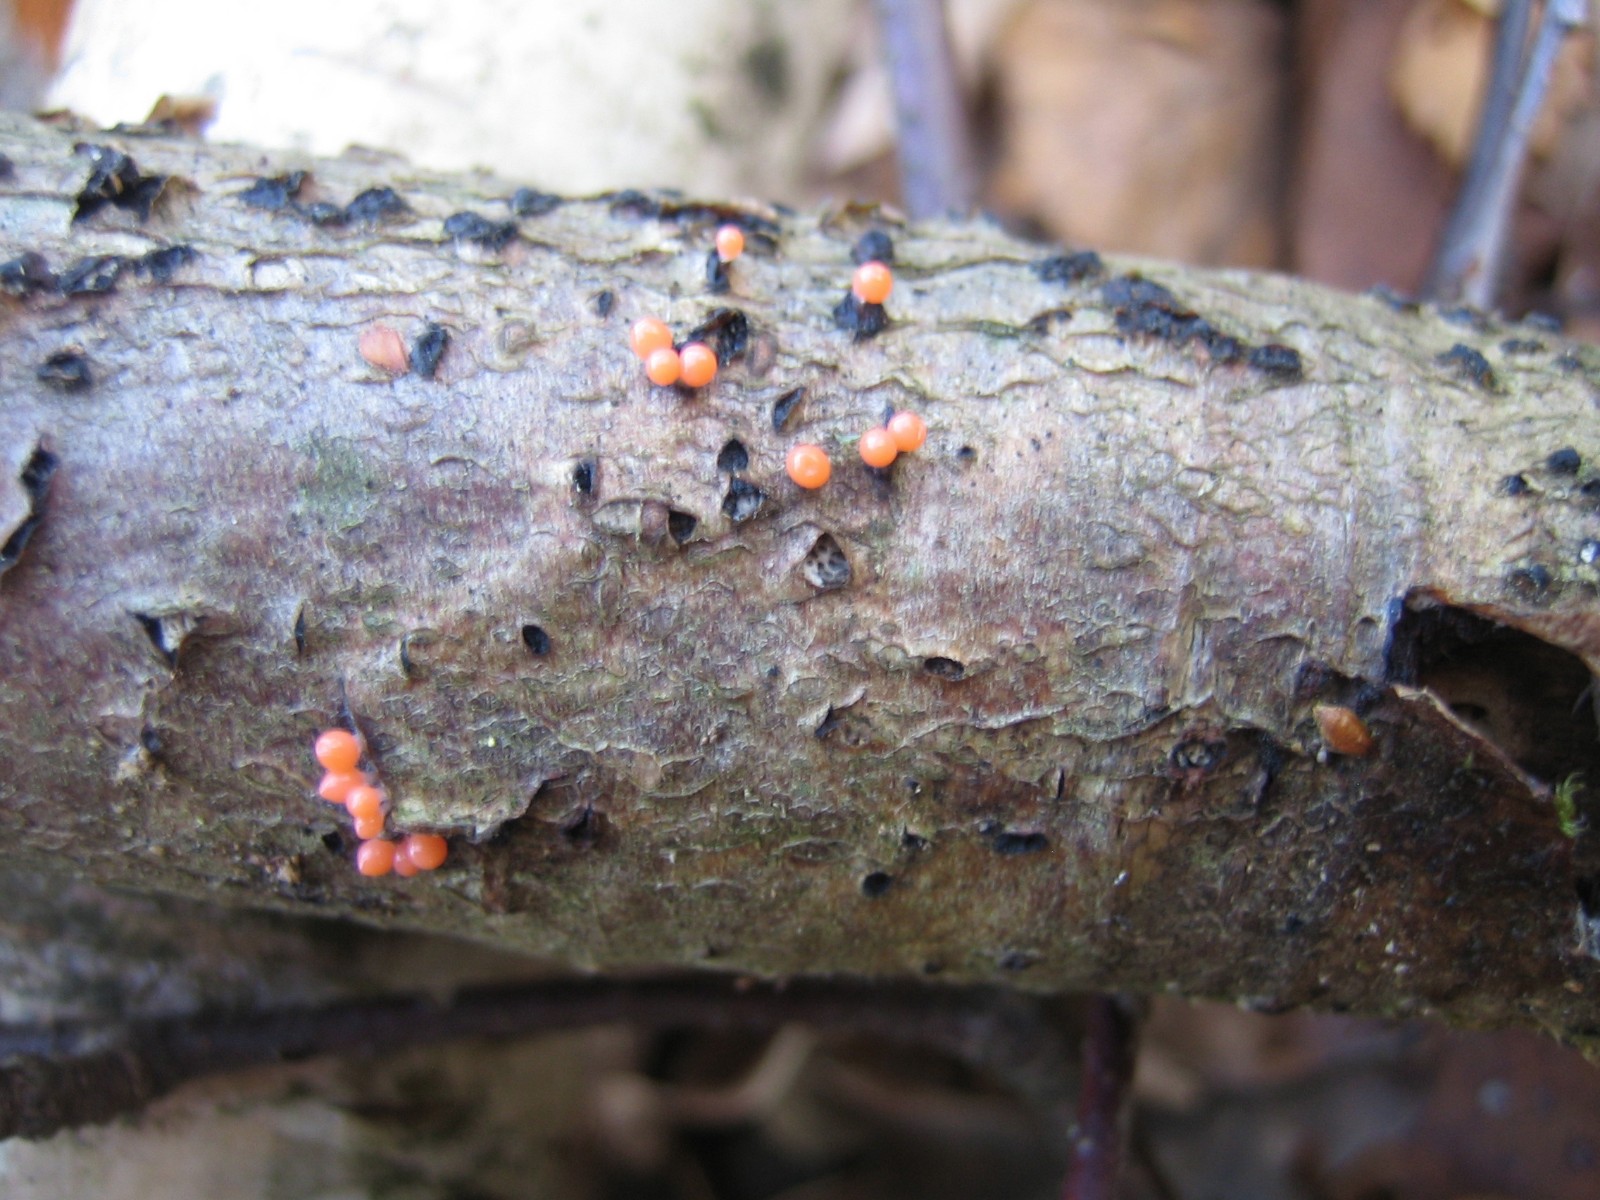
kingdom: Protozoa
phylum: Mycetozoa
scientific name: Mycetozoa
